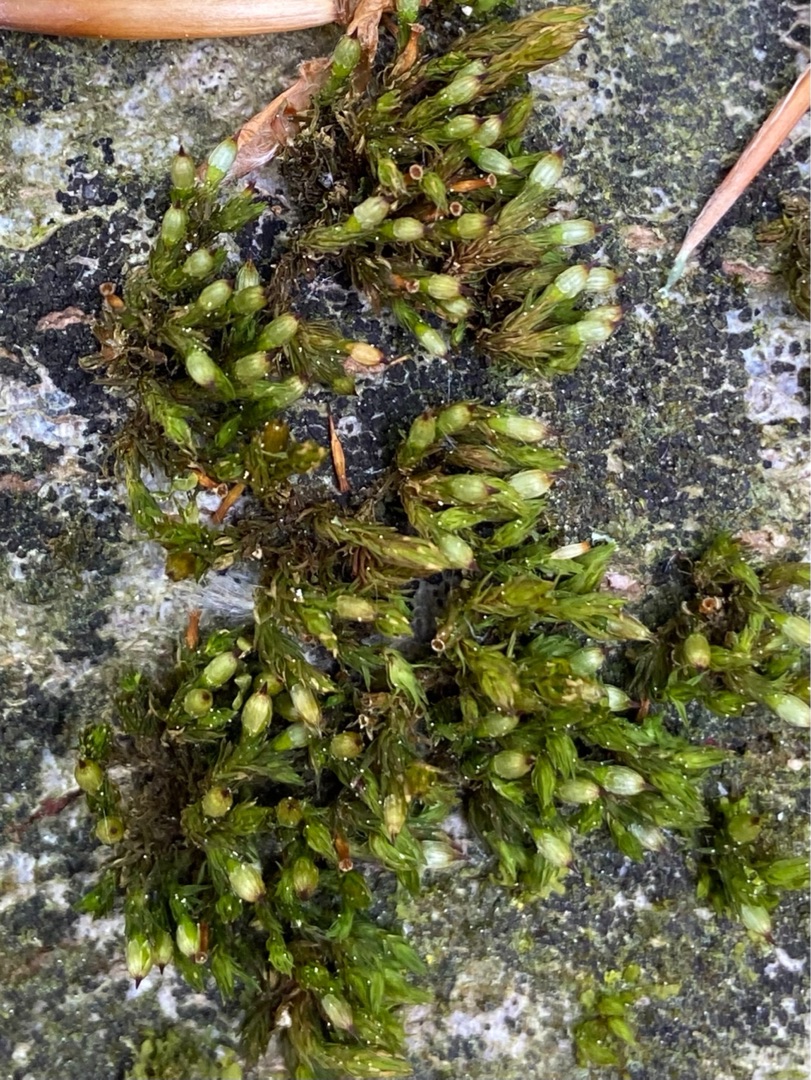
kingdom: Plantae
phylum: Bryophyta
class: Bryopsida
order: Orthotrichales
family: Orthotrichaceae
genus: Orthotrichum
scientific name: Orthotrichum
